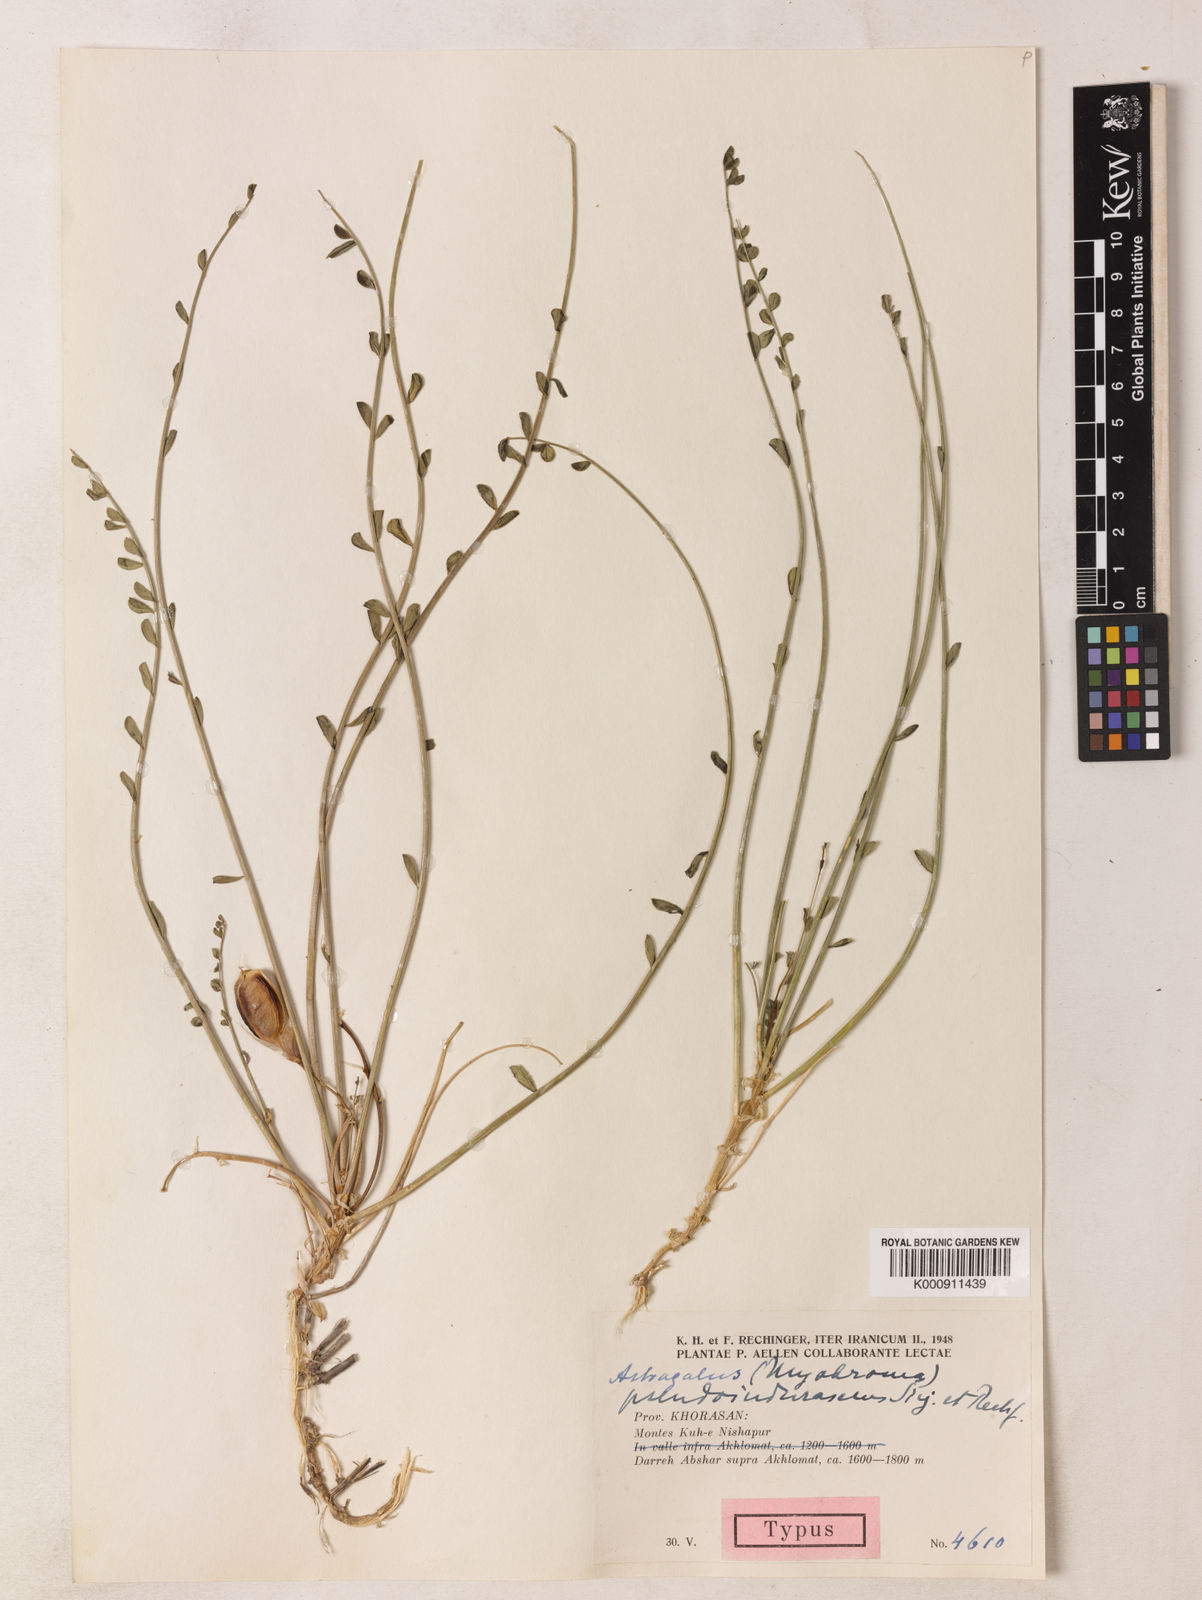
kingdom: Plantae
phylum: Tracheophyta
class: Magnoliopsida
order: Fabales
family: Fabaceae
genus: Astragalus
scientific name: Astragalus pseudoindurascens
